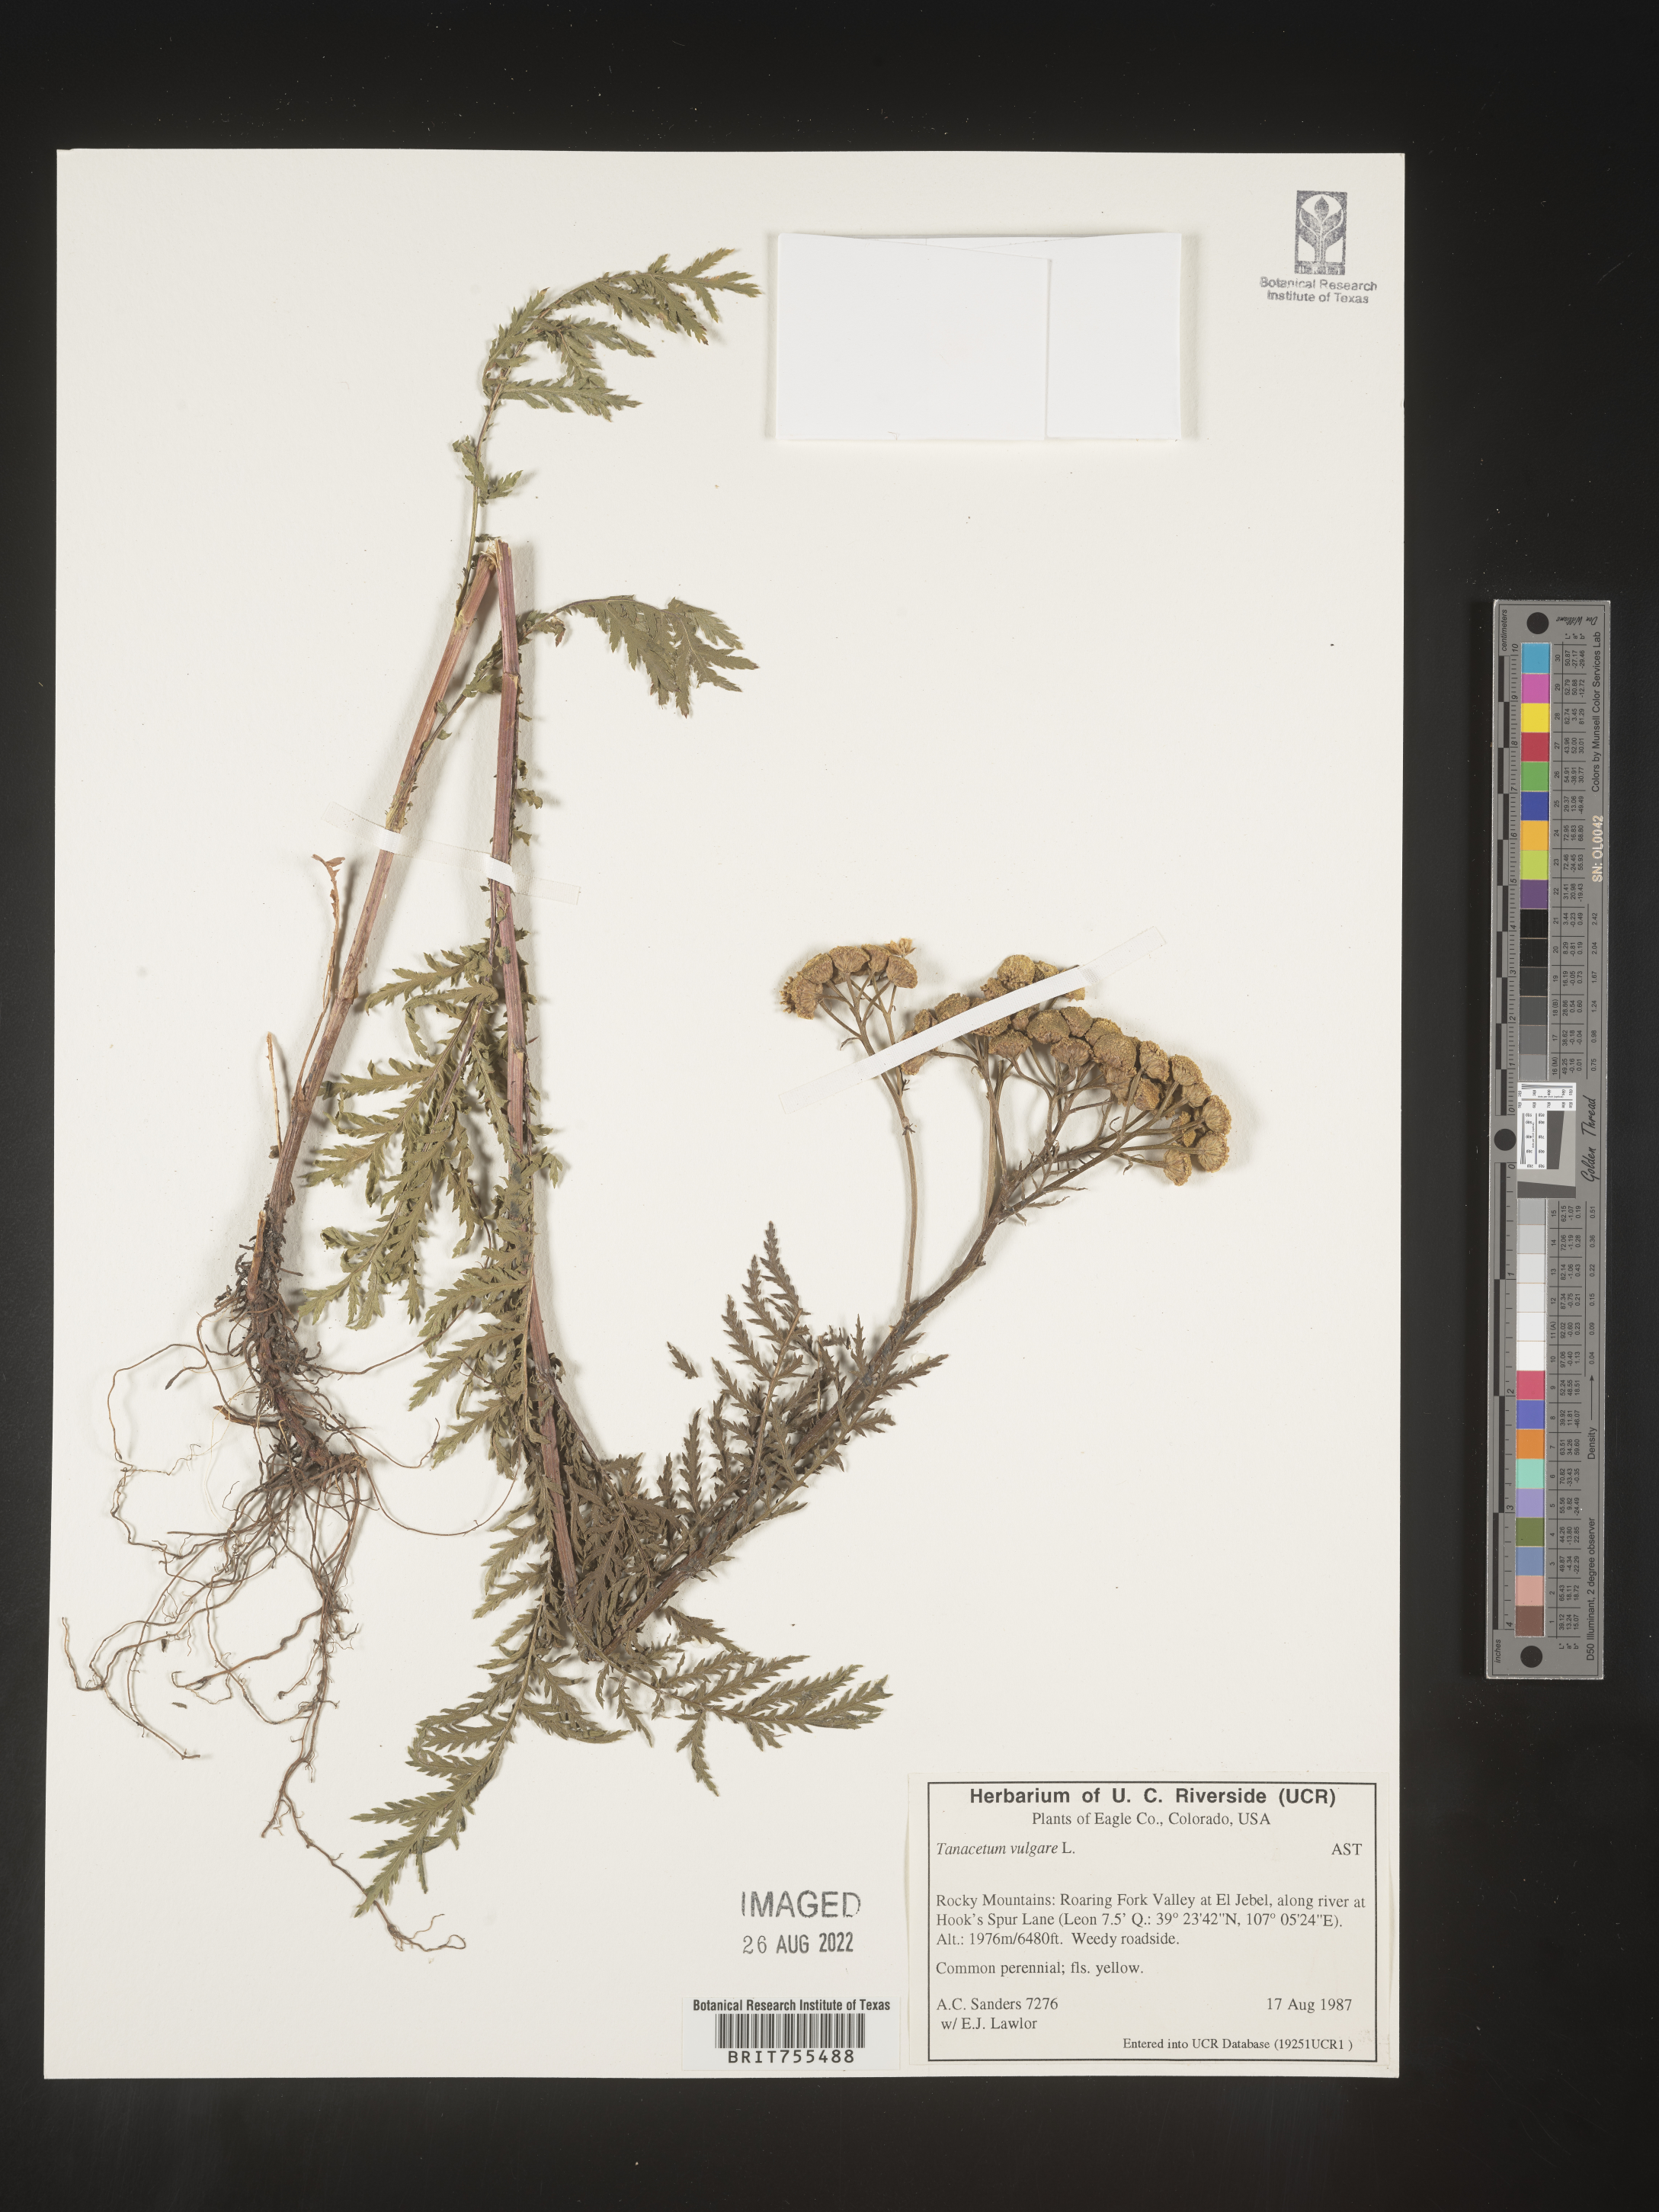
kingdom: Plantae
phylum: Tracheophyta
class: Magnoliopsida
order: Asterales
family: Asteraceae
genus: Tanacetum
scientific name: Tanacetum vulgare
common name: Common tansy
